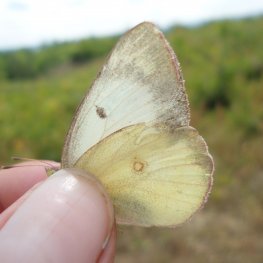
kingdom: Animalia
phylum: Arthropoda
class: Insecta
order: Lepidoptera
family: Pieridae
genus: Colias
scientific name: Colias eurytheme
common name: Orange Sulphur
